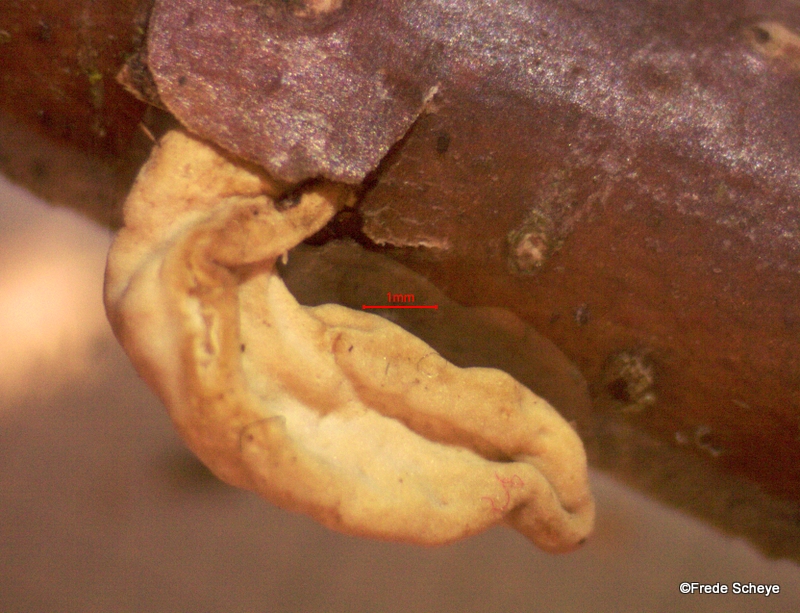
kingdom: Fungi
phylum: Basidiomycota
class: Agaricomycetes
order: Agaricales
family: Typhulaceae
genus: Typhula
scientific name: Typhula contorta
